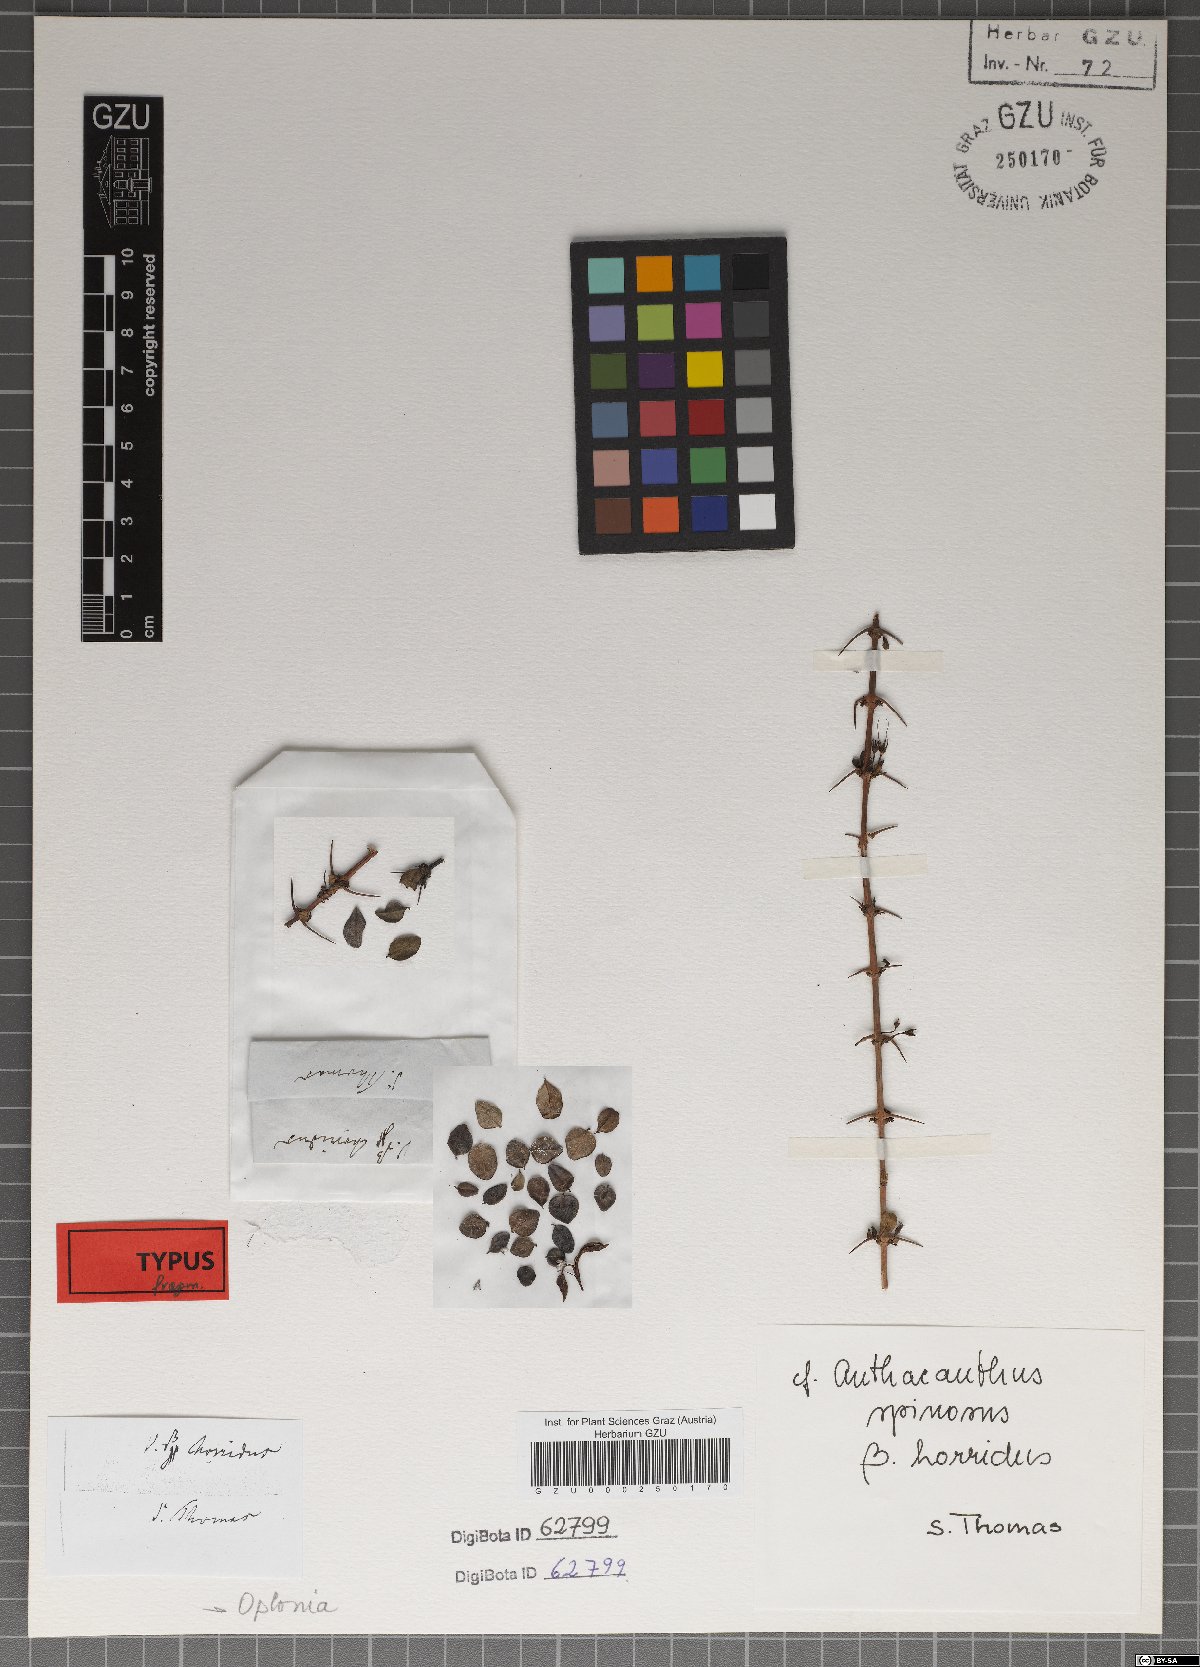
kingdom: Plantae
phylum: Tracheophyta
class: Magnoliopsida
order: Lamiales
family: Acanthaceae
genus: Oplonia
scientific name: Oplonia spinosa
